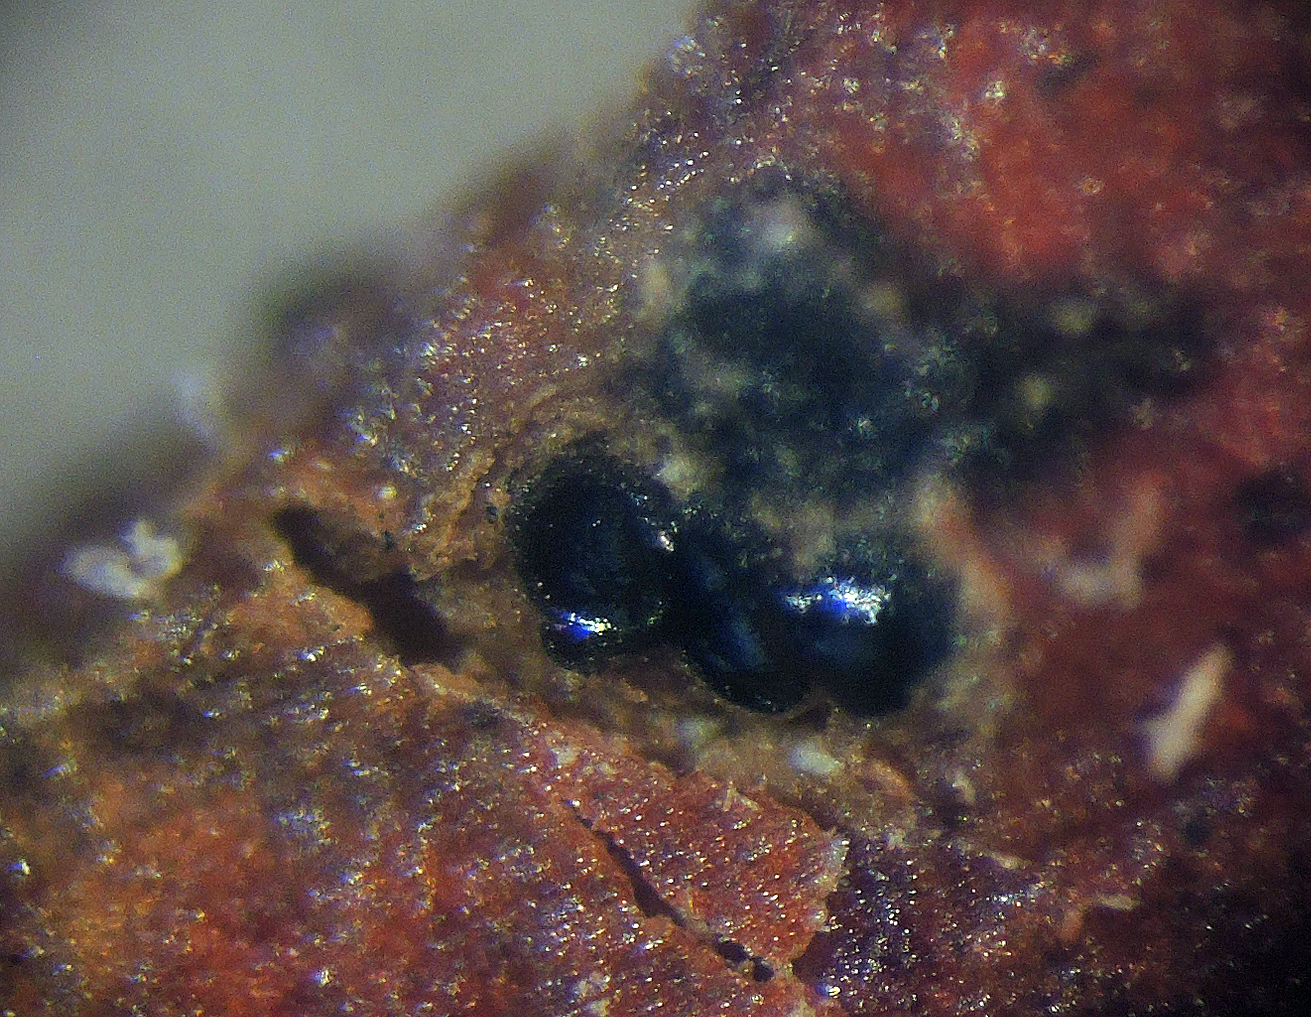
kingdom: Fungi
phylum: Ascomycota
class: Sordariomycetes
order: Diaporthales
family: Valsaceae
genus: Valsa
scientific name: Valsa salicina
